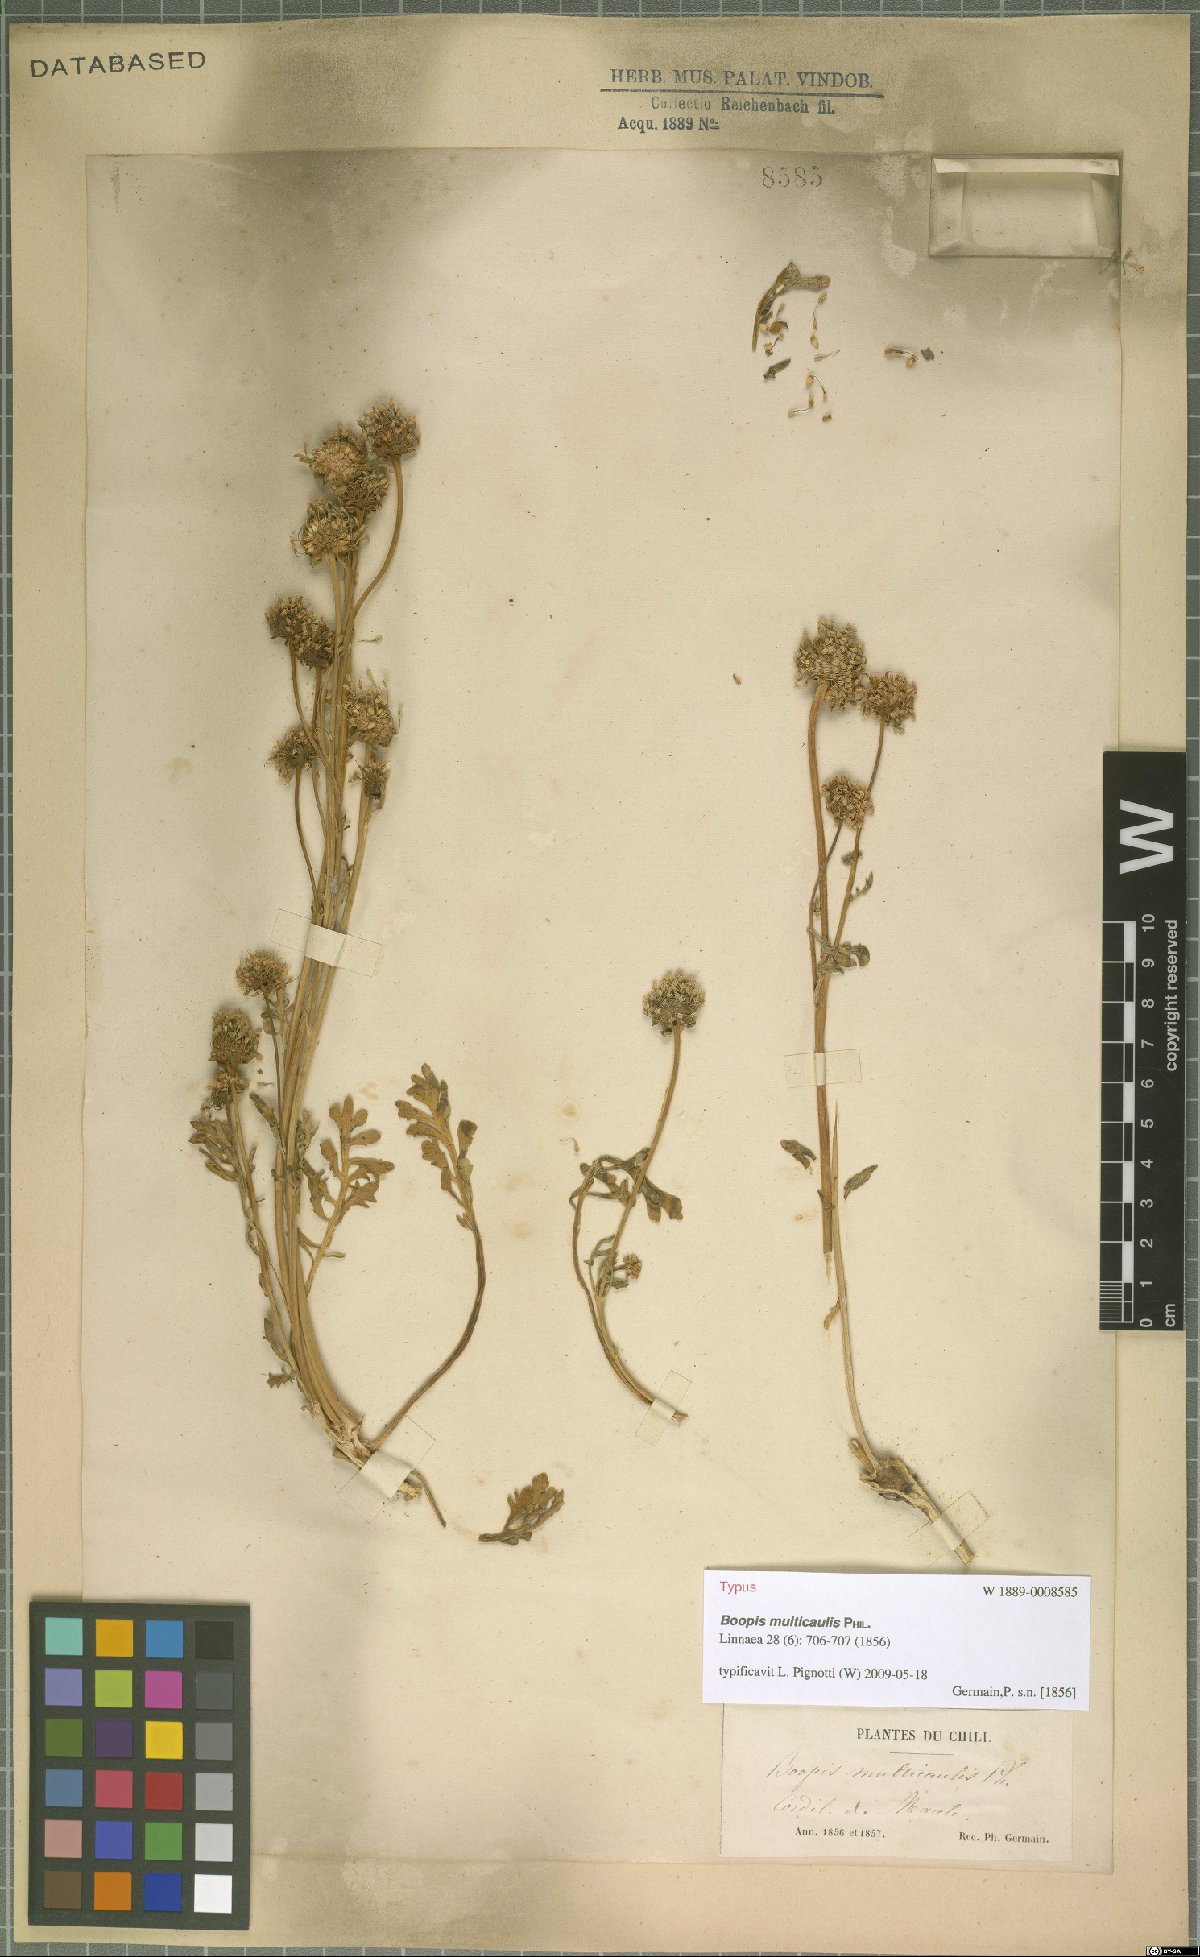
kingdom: Plantae
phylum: Tracheophyta
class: Magnoliopsida
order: Asterales
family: Calyceraceae
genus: Gamocarpha
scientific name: Gamocarpha multicaulis
